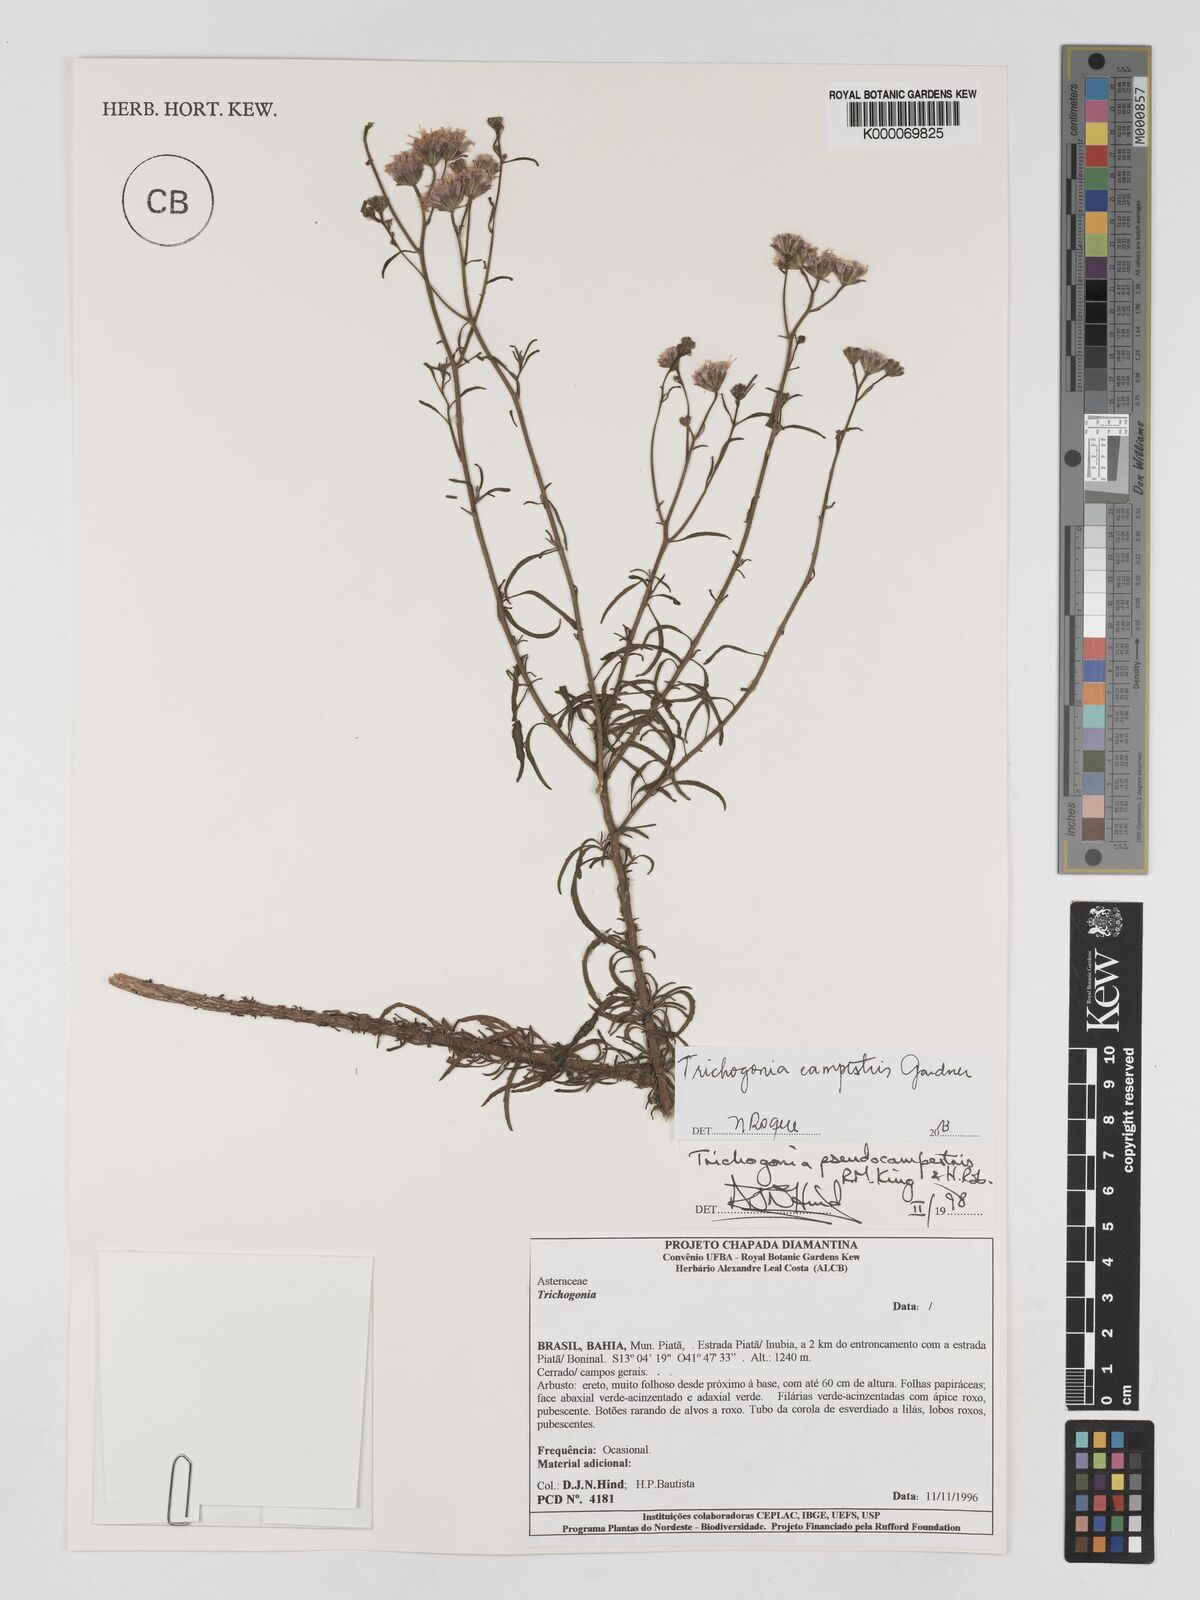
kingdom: Plantae
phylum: Tracheophyta
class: Magnoliopsida
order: Asterales
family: Asteraceae
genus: Trichogonia
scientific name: Trichogonia campestris
